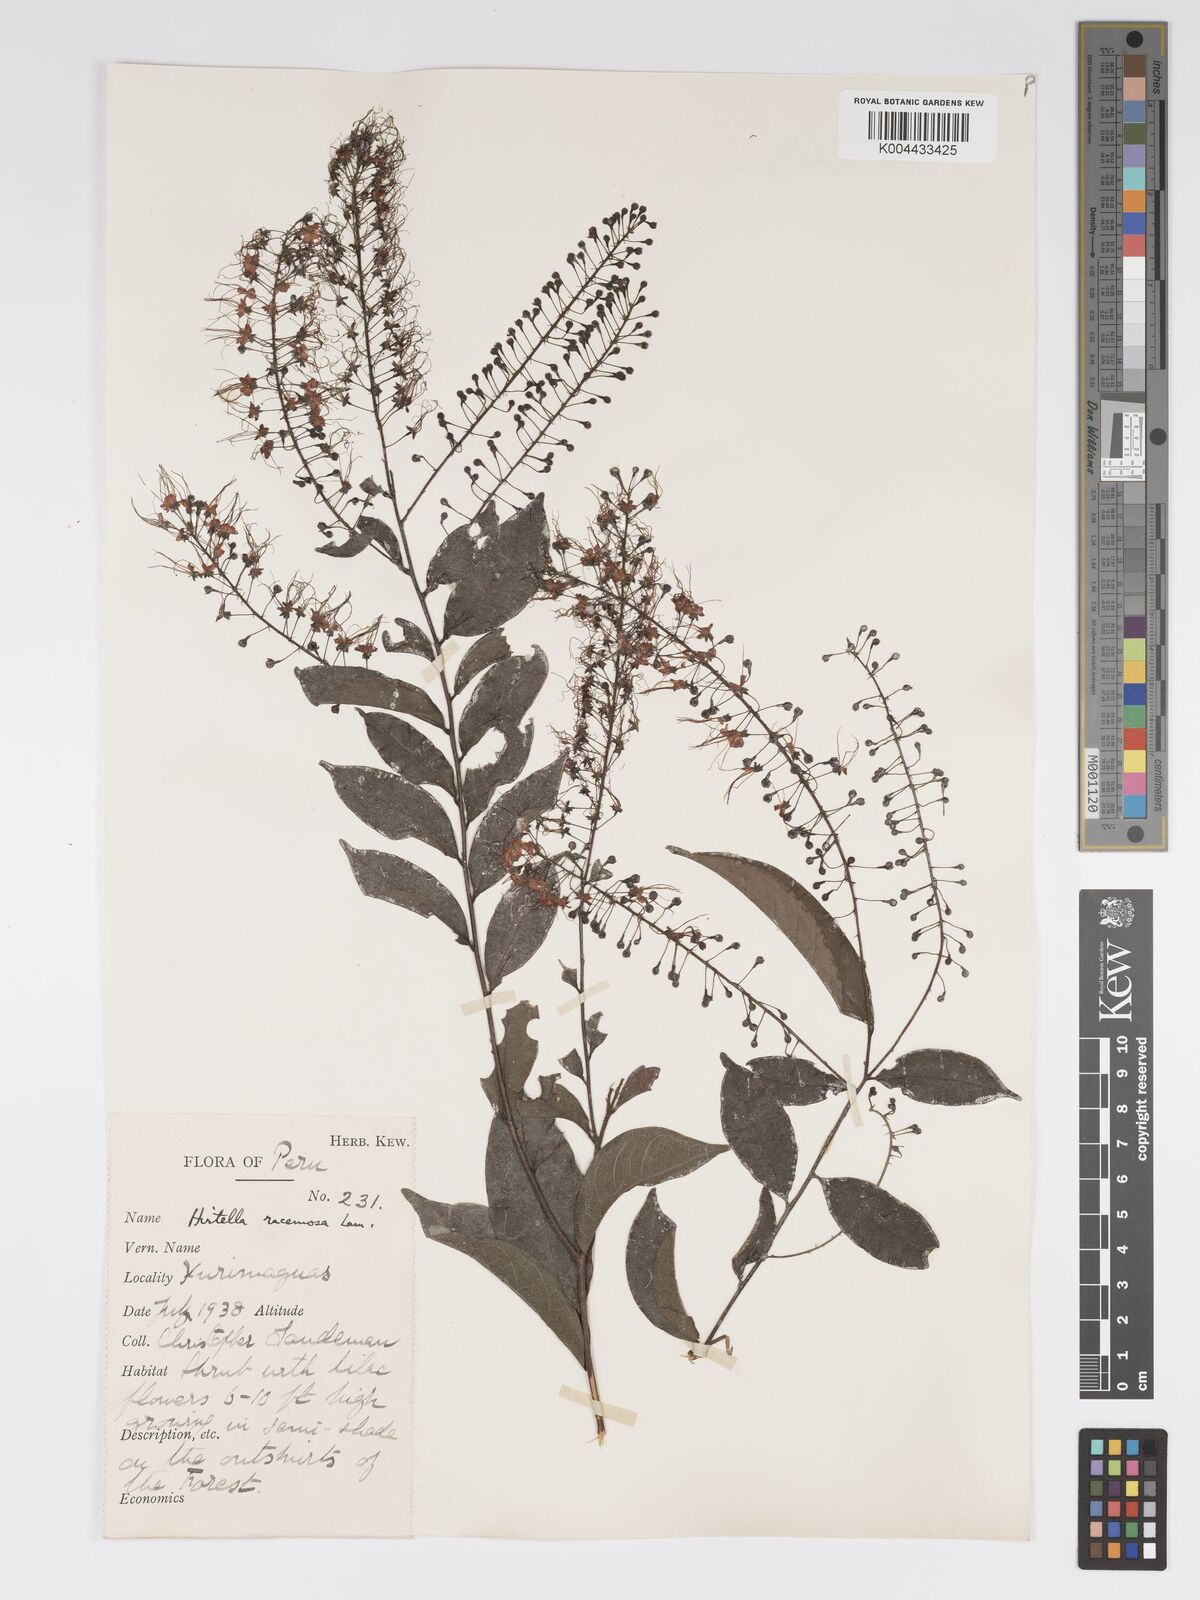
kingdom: Plantae
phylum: Tracheophyta
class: Magnoliopsida
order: Malpighiales
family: Chrysobalanaceae
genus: Hirtella
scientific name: Hirtella racemosa
